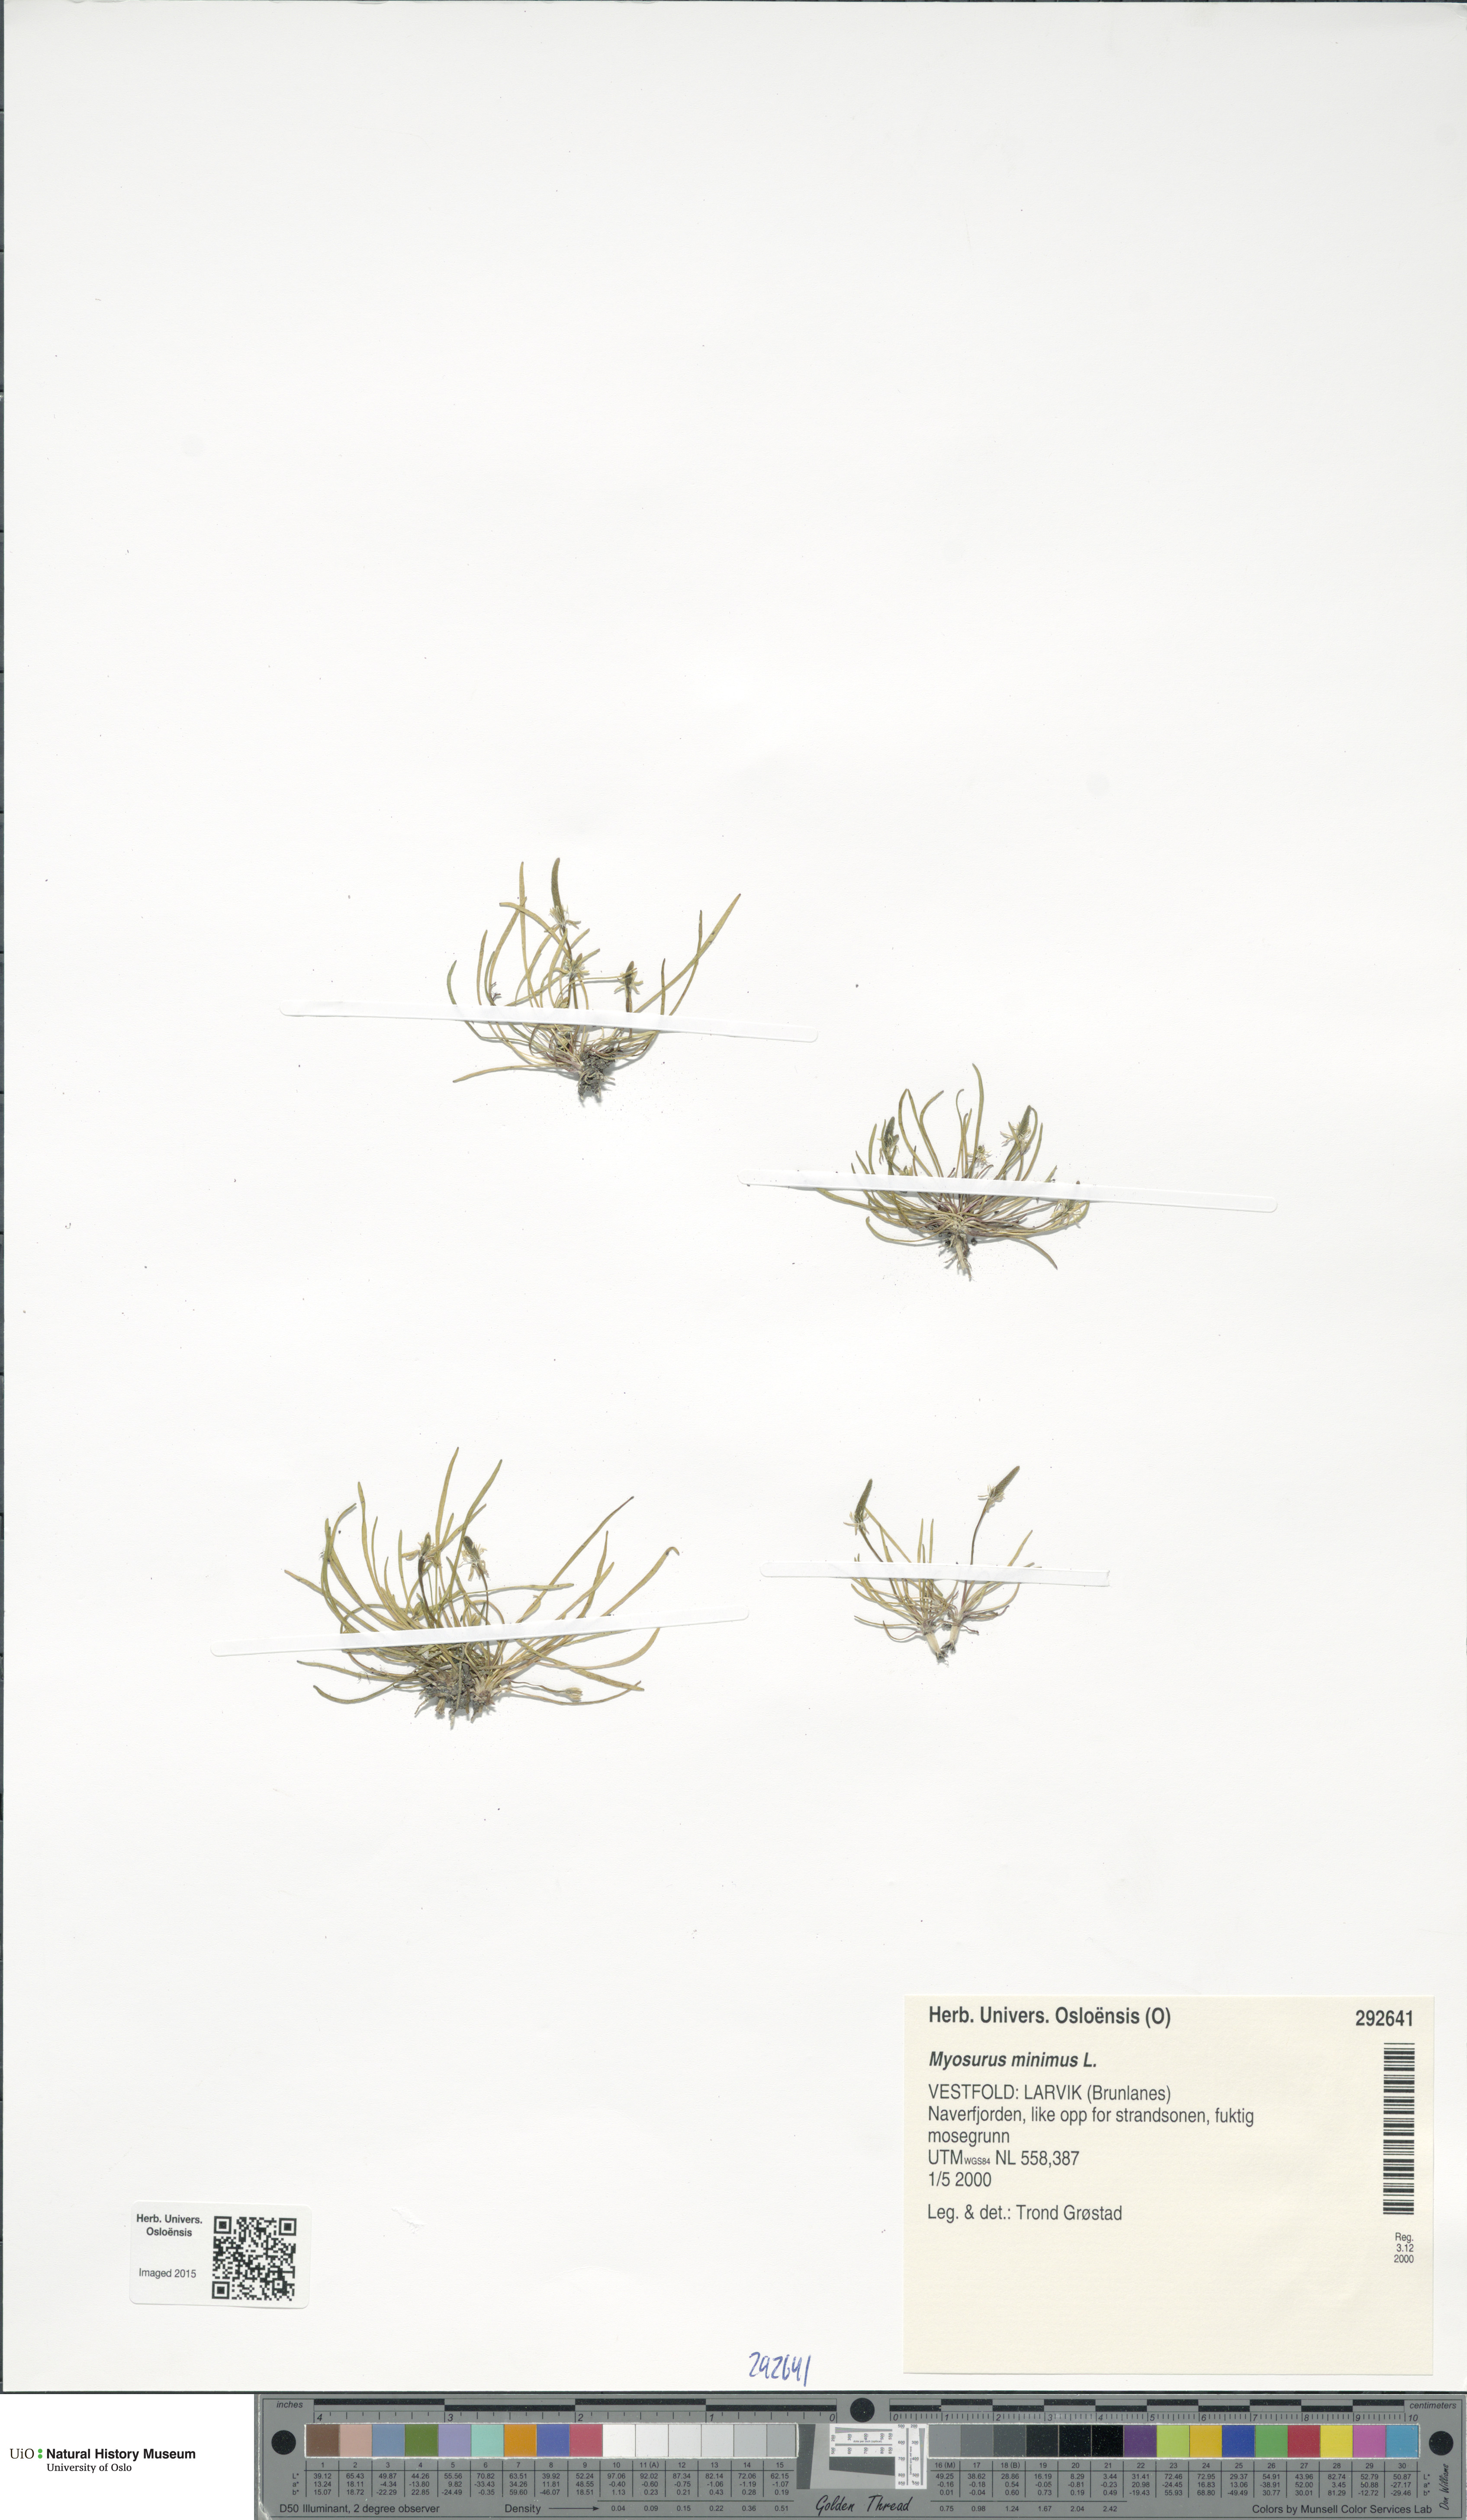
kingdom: Plantae
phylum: Tracheophyta
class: Magnoliopsida
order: Ranunculales
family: Ranunculaceae
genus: Myosurus
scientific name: Myosurus minimus
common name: Mousetail
